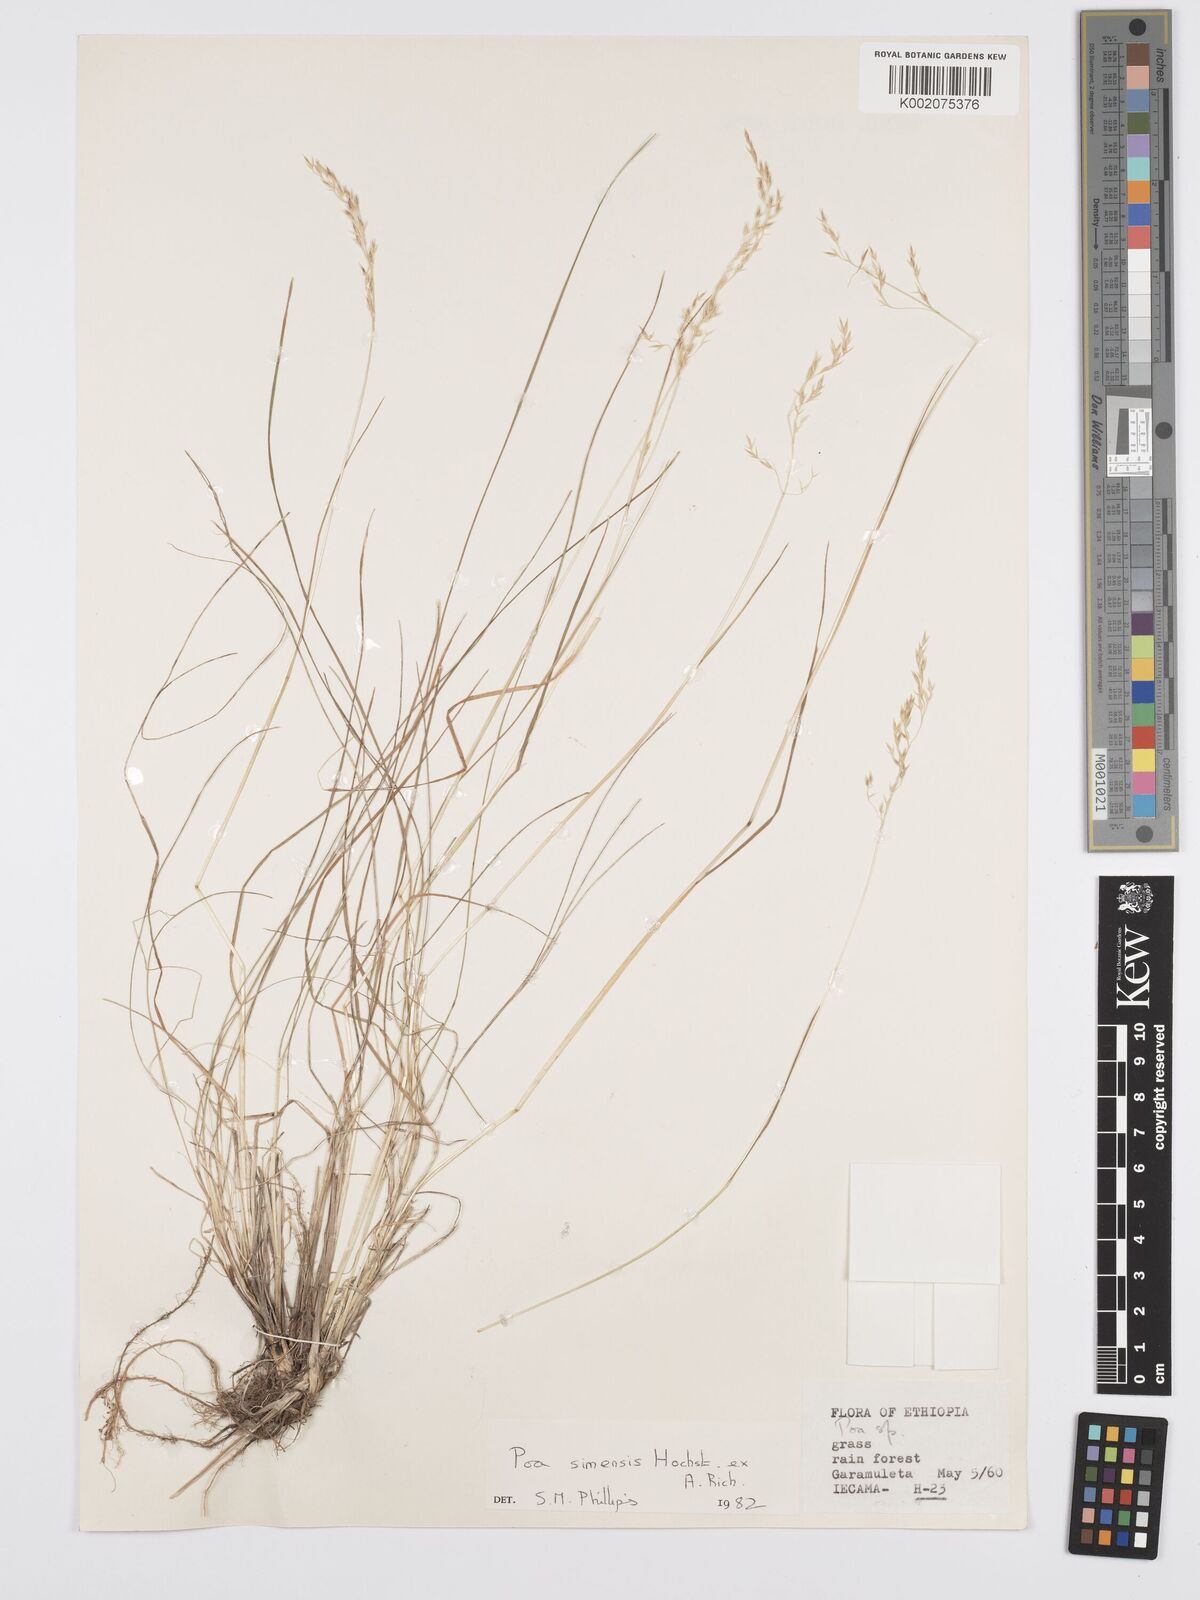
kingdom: Plantae
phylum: Tracheophyta
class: Liliopsida
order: Poales
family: Poaceae
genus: Poa
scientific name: Poa simensis
